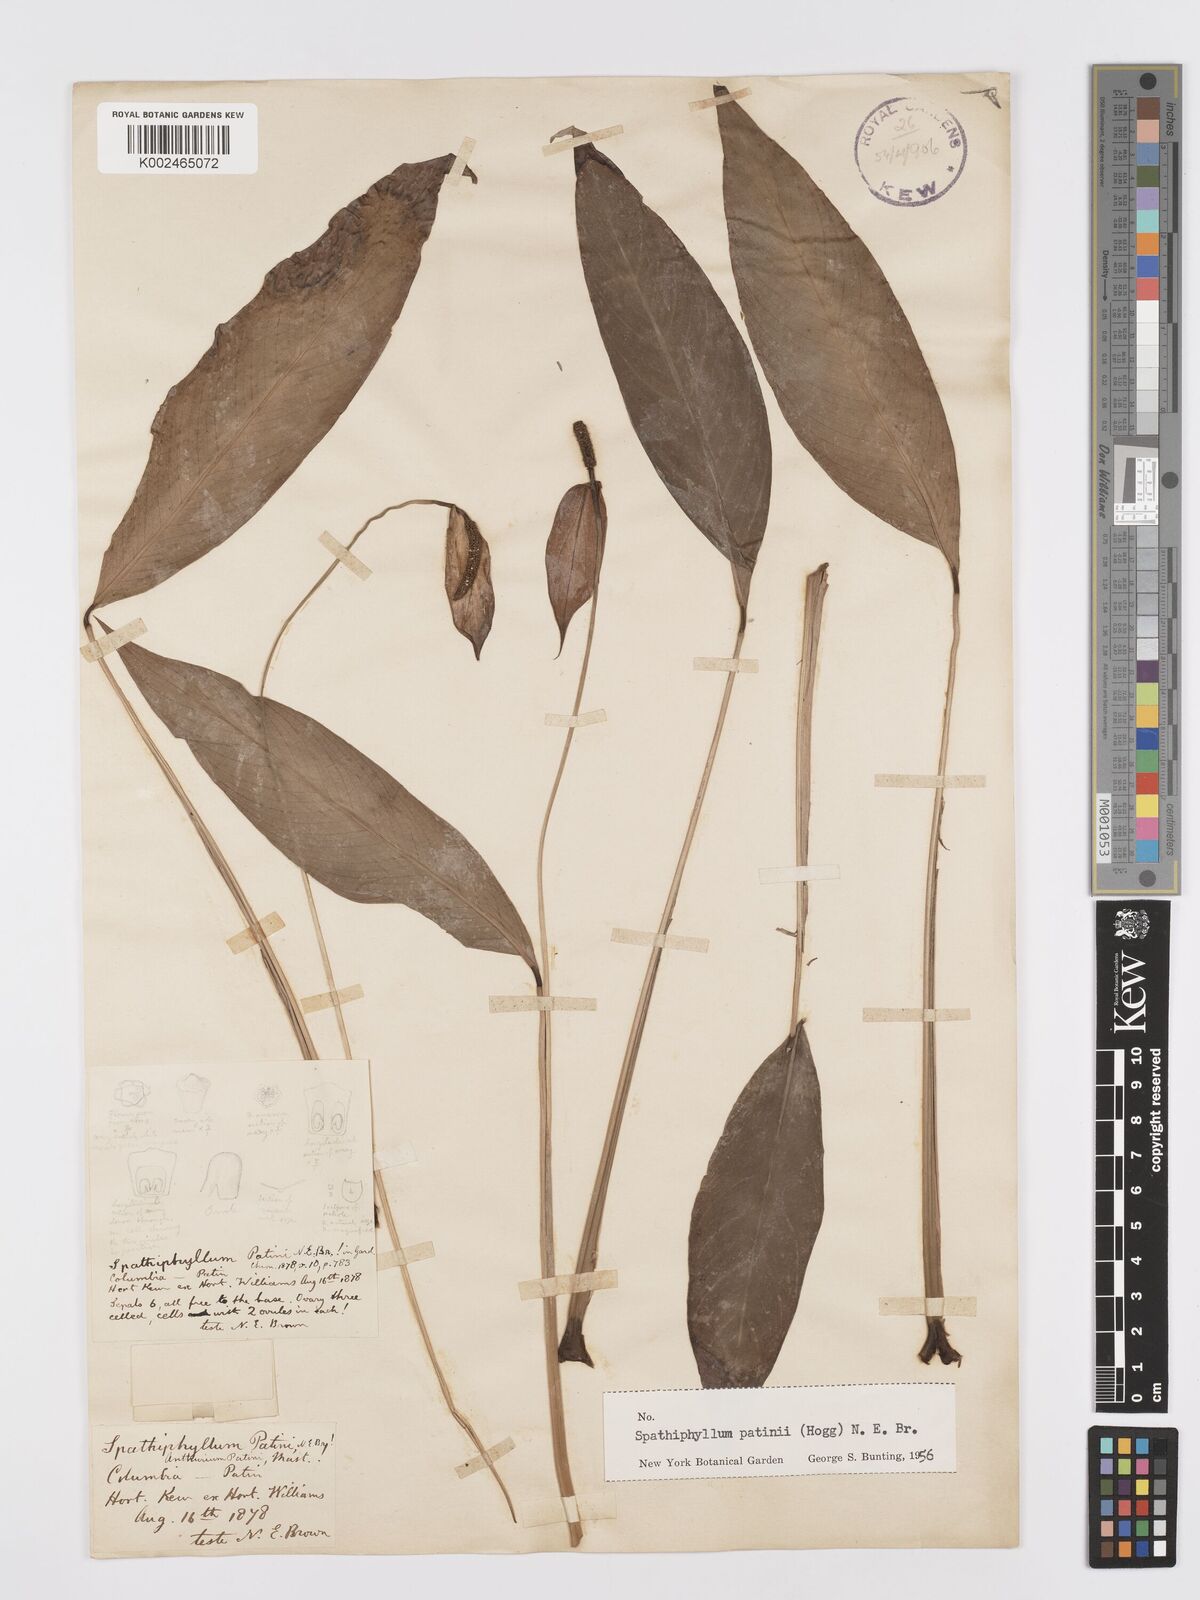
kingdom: Plantae
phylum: Tracheophyta
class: Liliopsida
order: Alismatales
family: Araceae
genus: Spathiphyllum
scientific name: Spathiphyllum patinii
